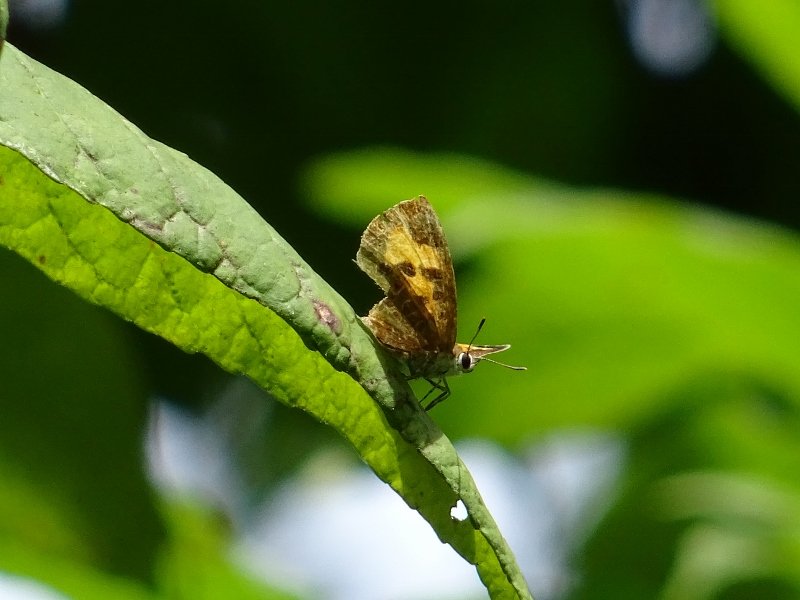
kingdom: Animalia
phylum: Arthropoda
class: Insecta
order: Lepidoptera
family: Lycaenidae
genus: Feniseca
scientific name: Feniseca tarquinius
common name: Harvester
